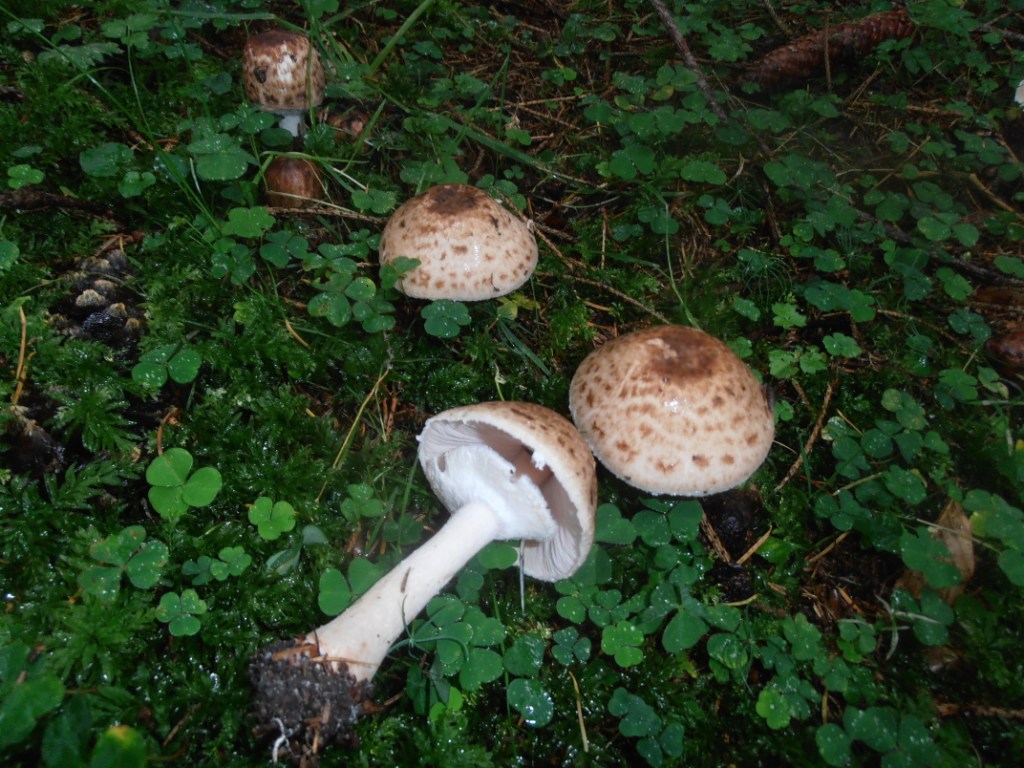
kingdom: Fungi
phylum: Basidiomycota
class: Agaricomycetes
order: Agaricales
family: Agaricaceae
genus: Agaricus
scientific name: Agaricus impudicus
